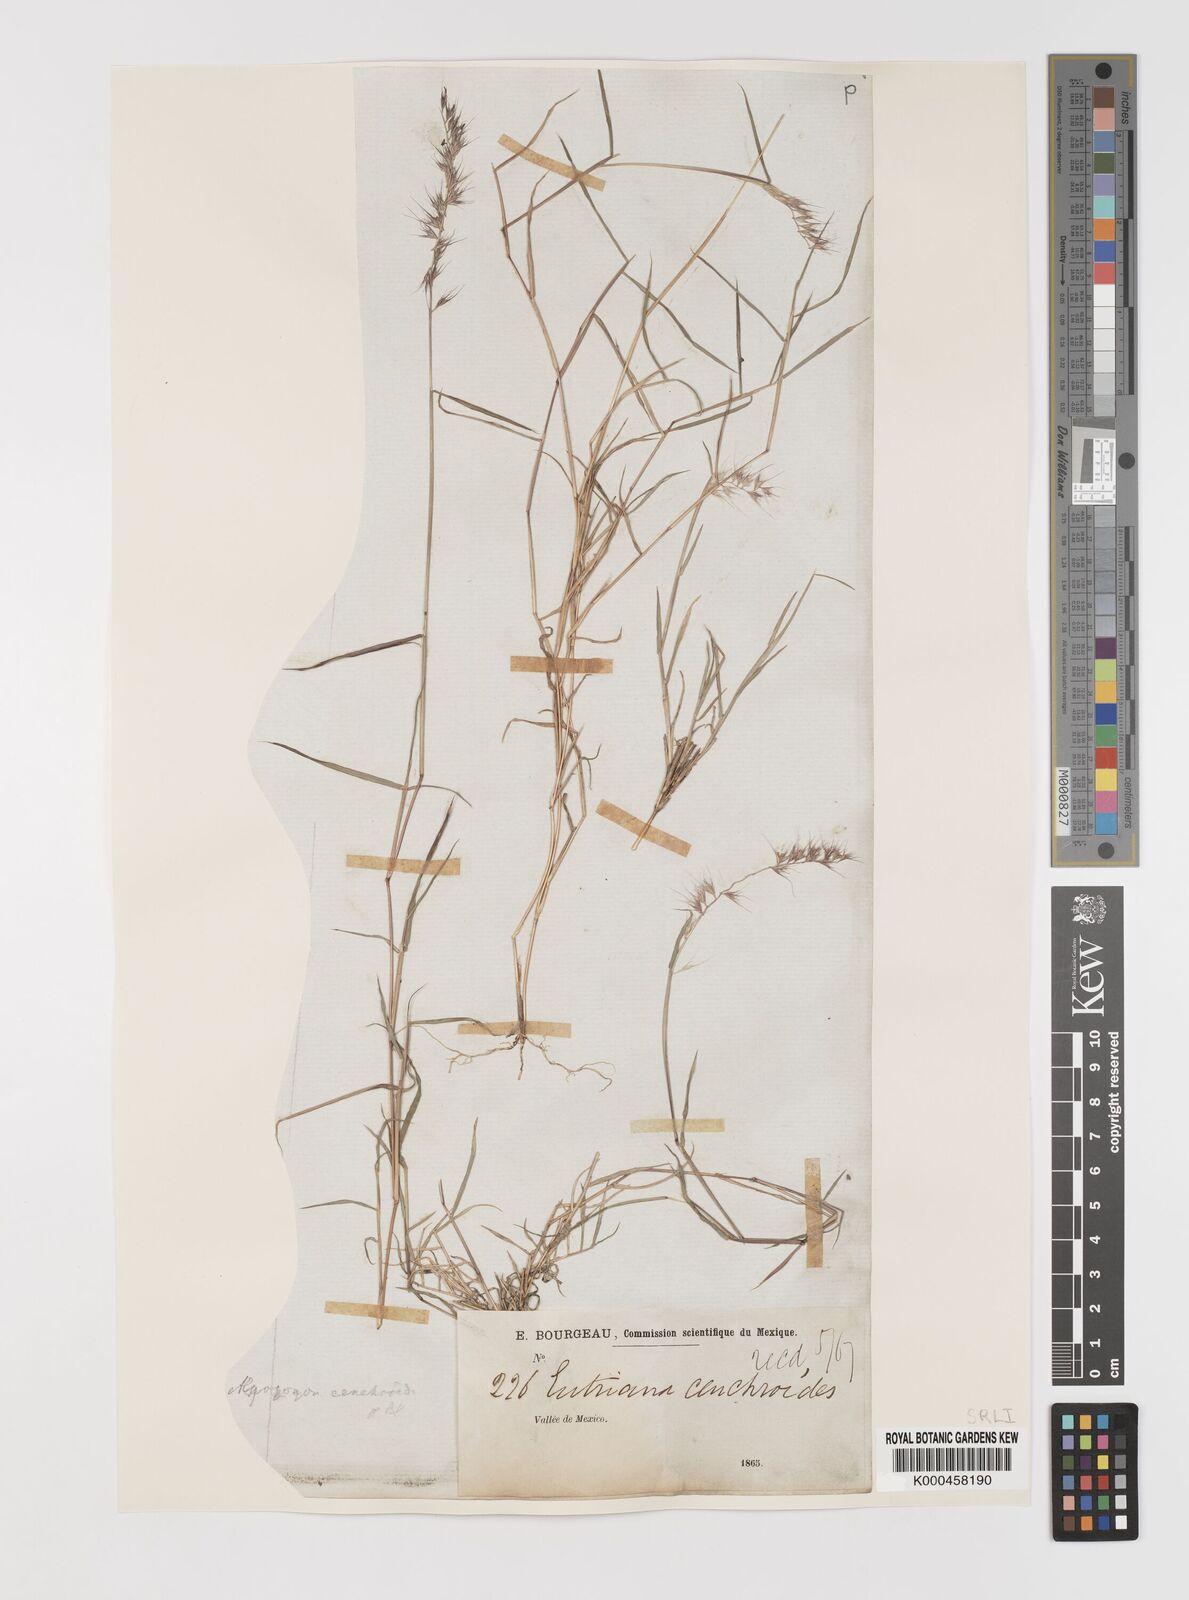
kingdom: Plantae
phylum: Tracheophyta
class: Liliopsida
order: Poales
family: Poaceae
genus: Muhlenbergia
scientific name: Muhlenbergia
